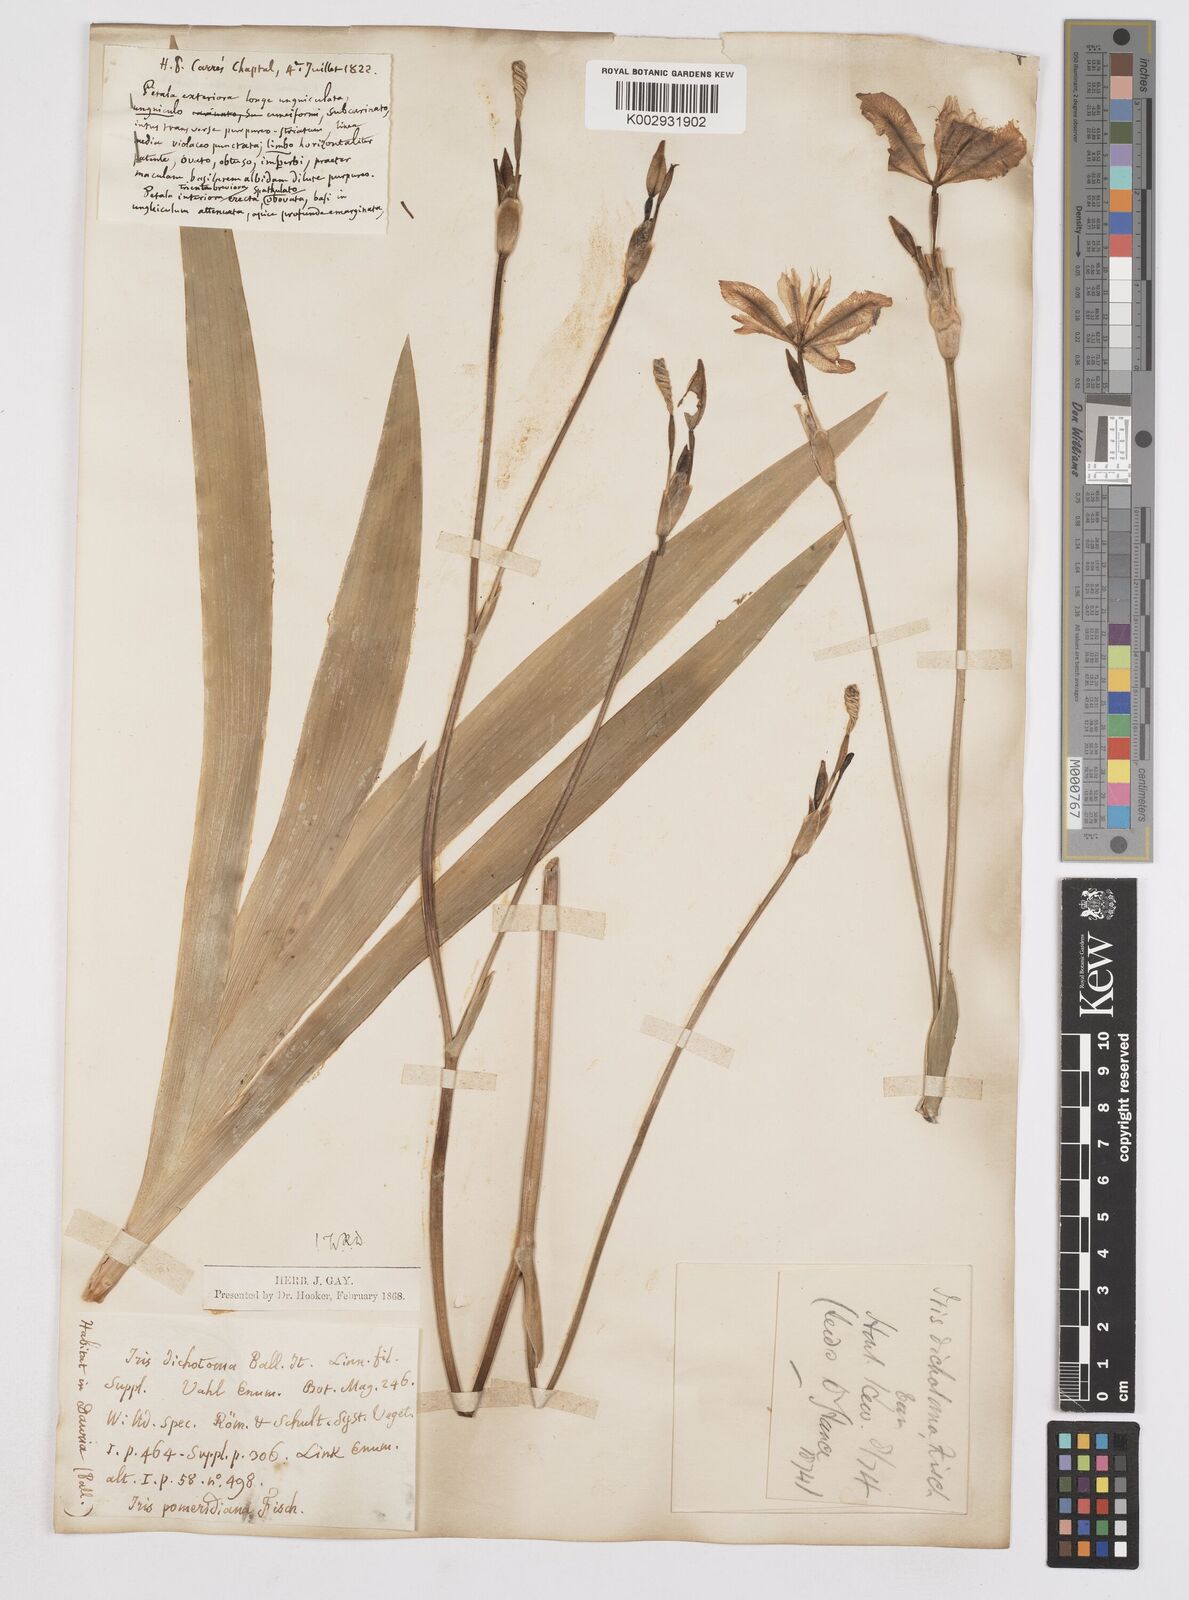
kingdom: Plantae
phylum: Tracheophyta
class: Liliopsida
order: Asparagales
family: Iridaceae
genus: Iris
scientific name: Iris dichotoma
